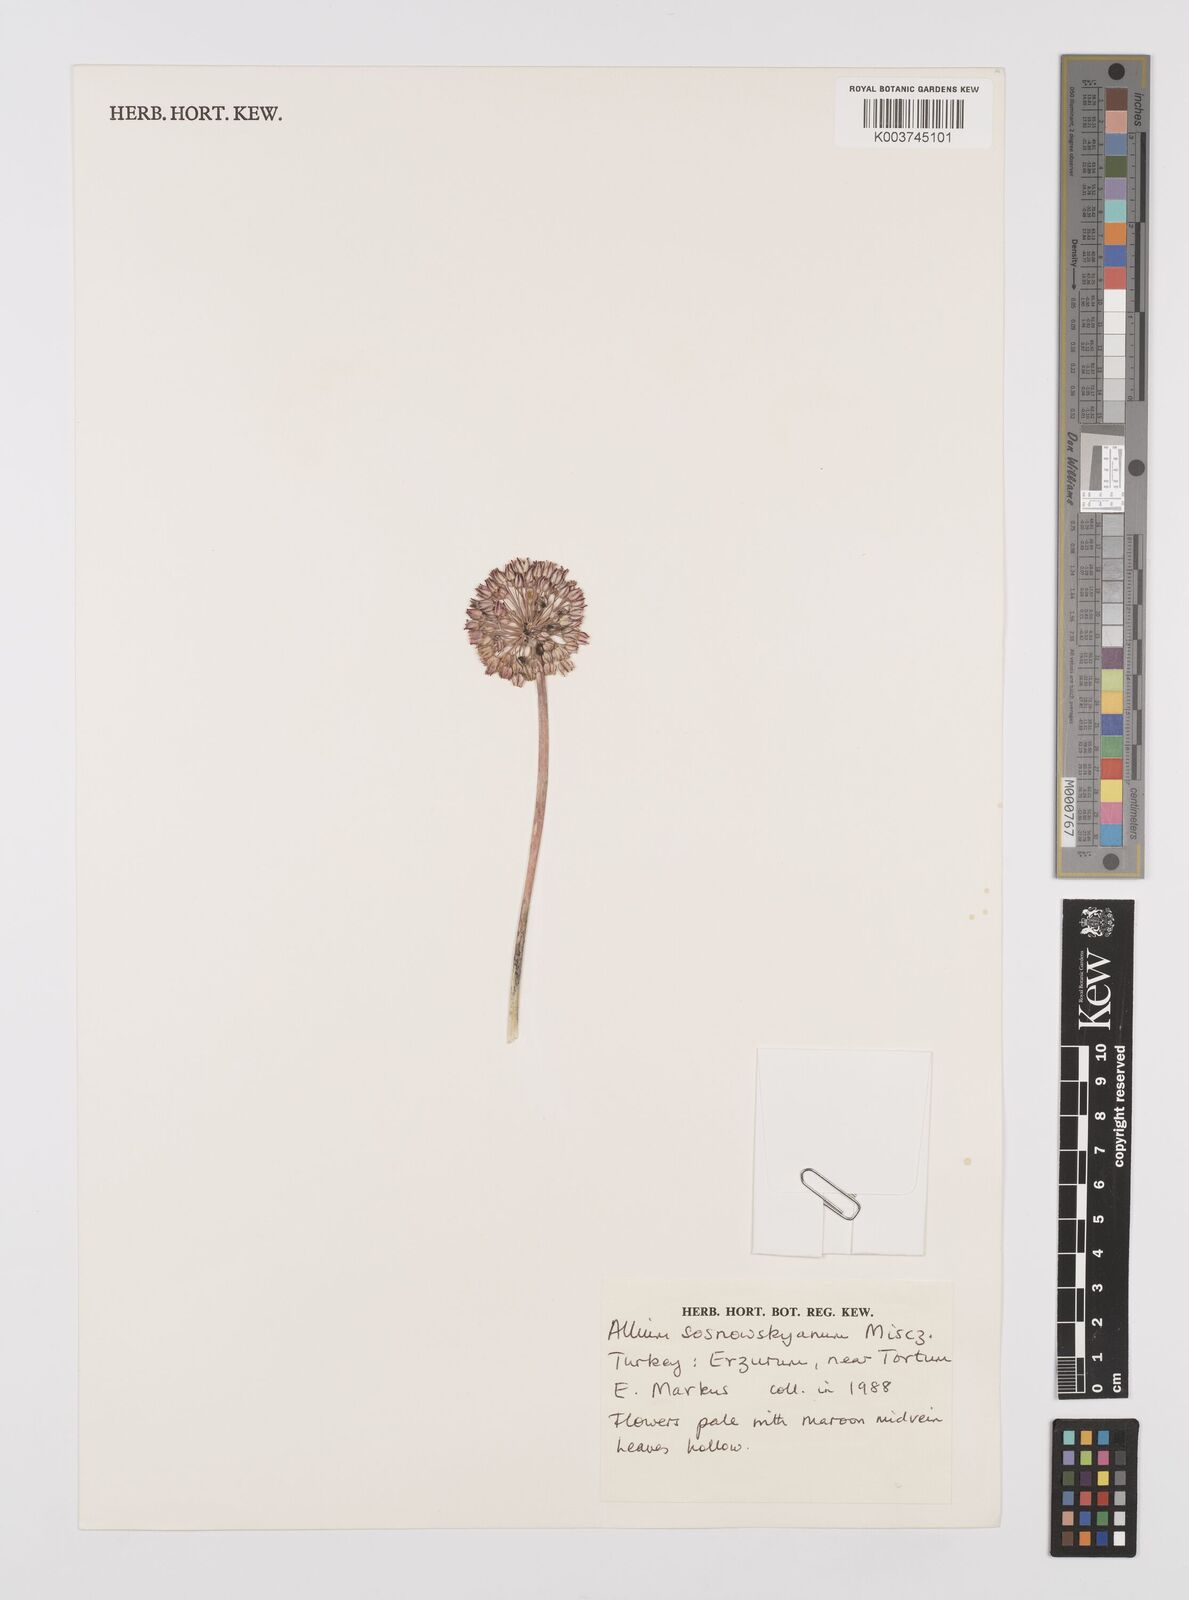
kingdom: Plantae
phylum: Tracheophyta
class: Liliopsida
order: Asparagales
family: Amaryllidaceae
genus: Allium
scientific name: Allium sosnovskyanum
